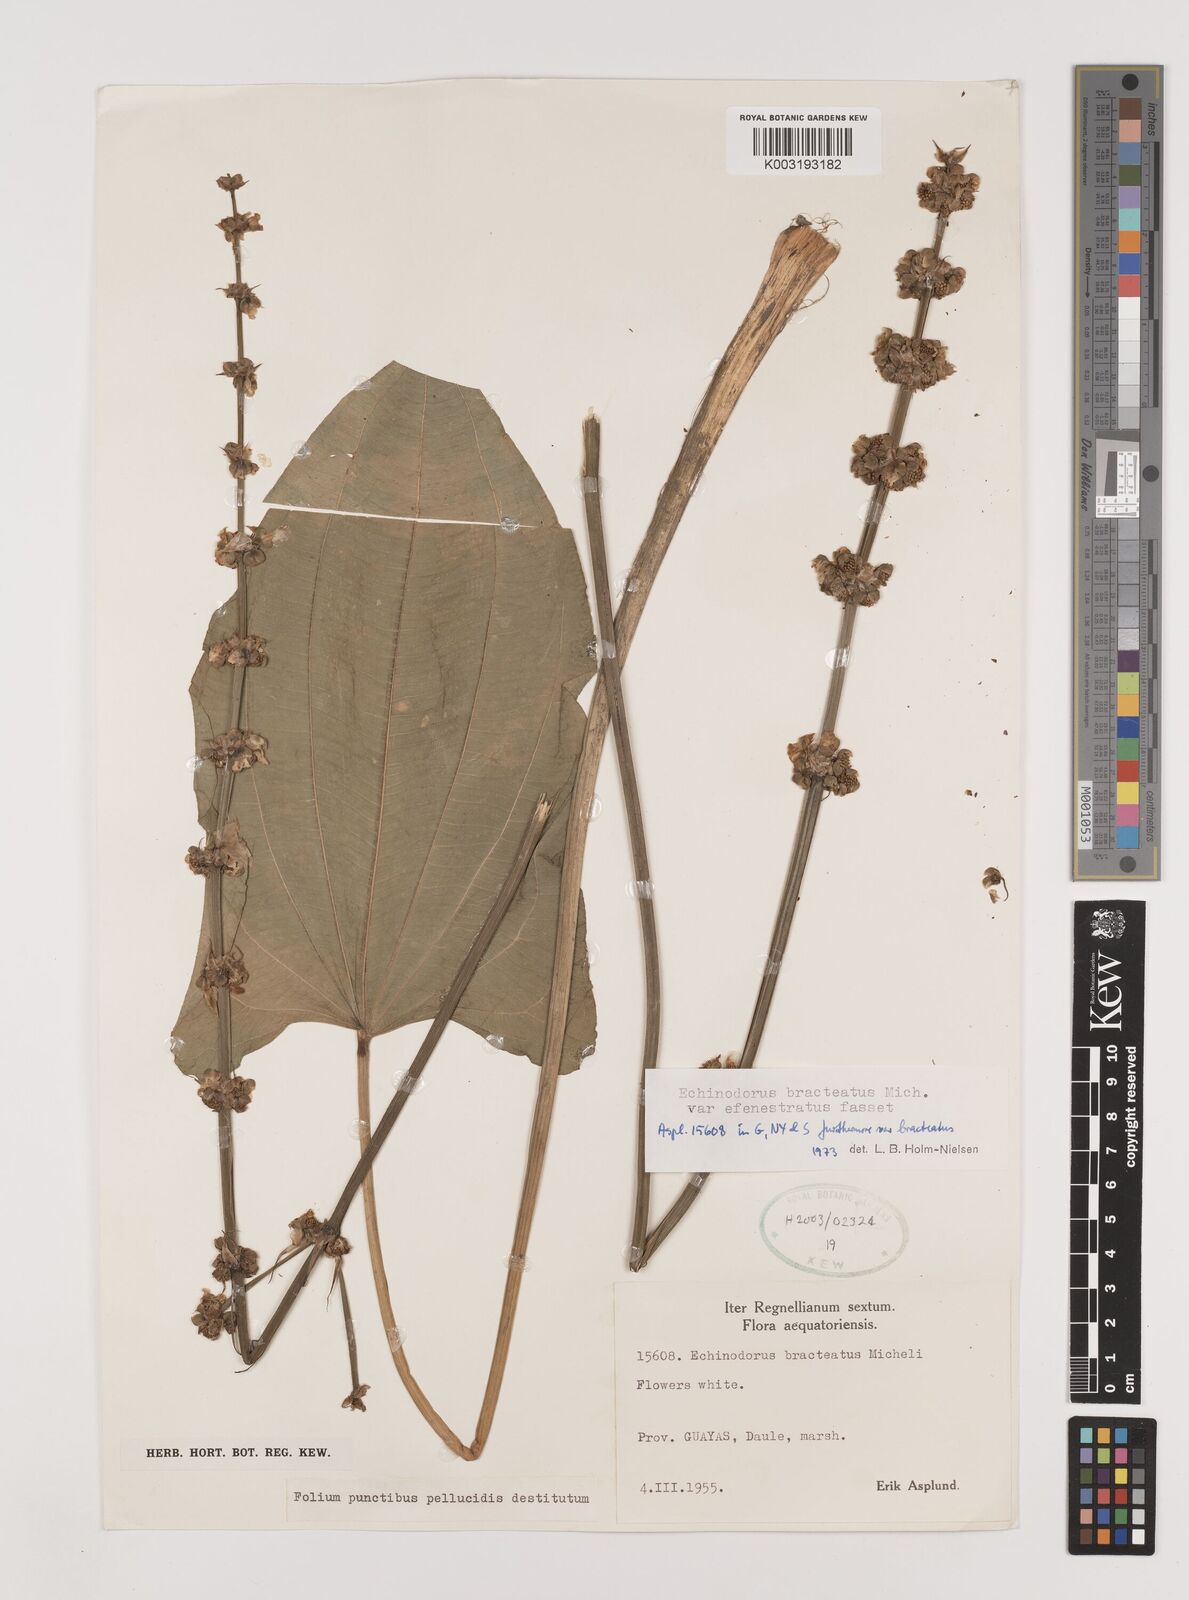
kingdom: Plantae
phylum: Tracheophyta
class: Liliopsida
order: Alismatales
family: Alismataceae
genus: Aquarius
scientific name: Aquarius bracteatus
